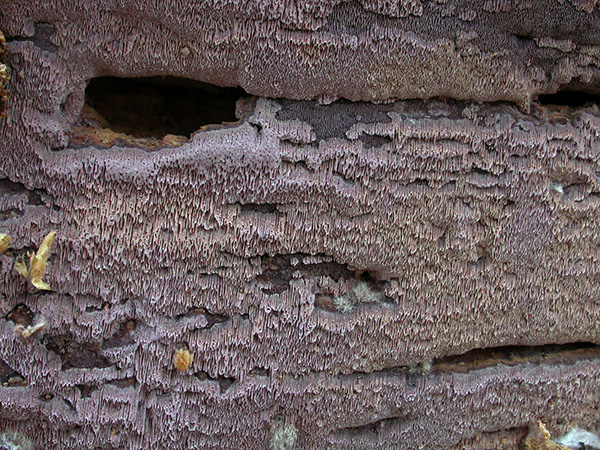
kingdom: Fungi
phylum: Basidiomycota
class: Agaricomycetes
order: Polyporales
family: Irpicaceae
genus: Ceriporia
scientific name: Ceriporia excelsa
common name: lilla voksporesvamp
